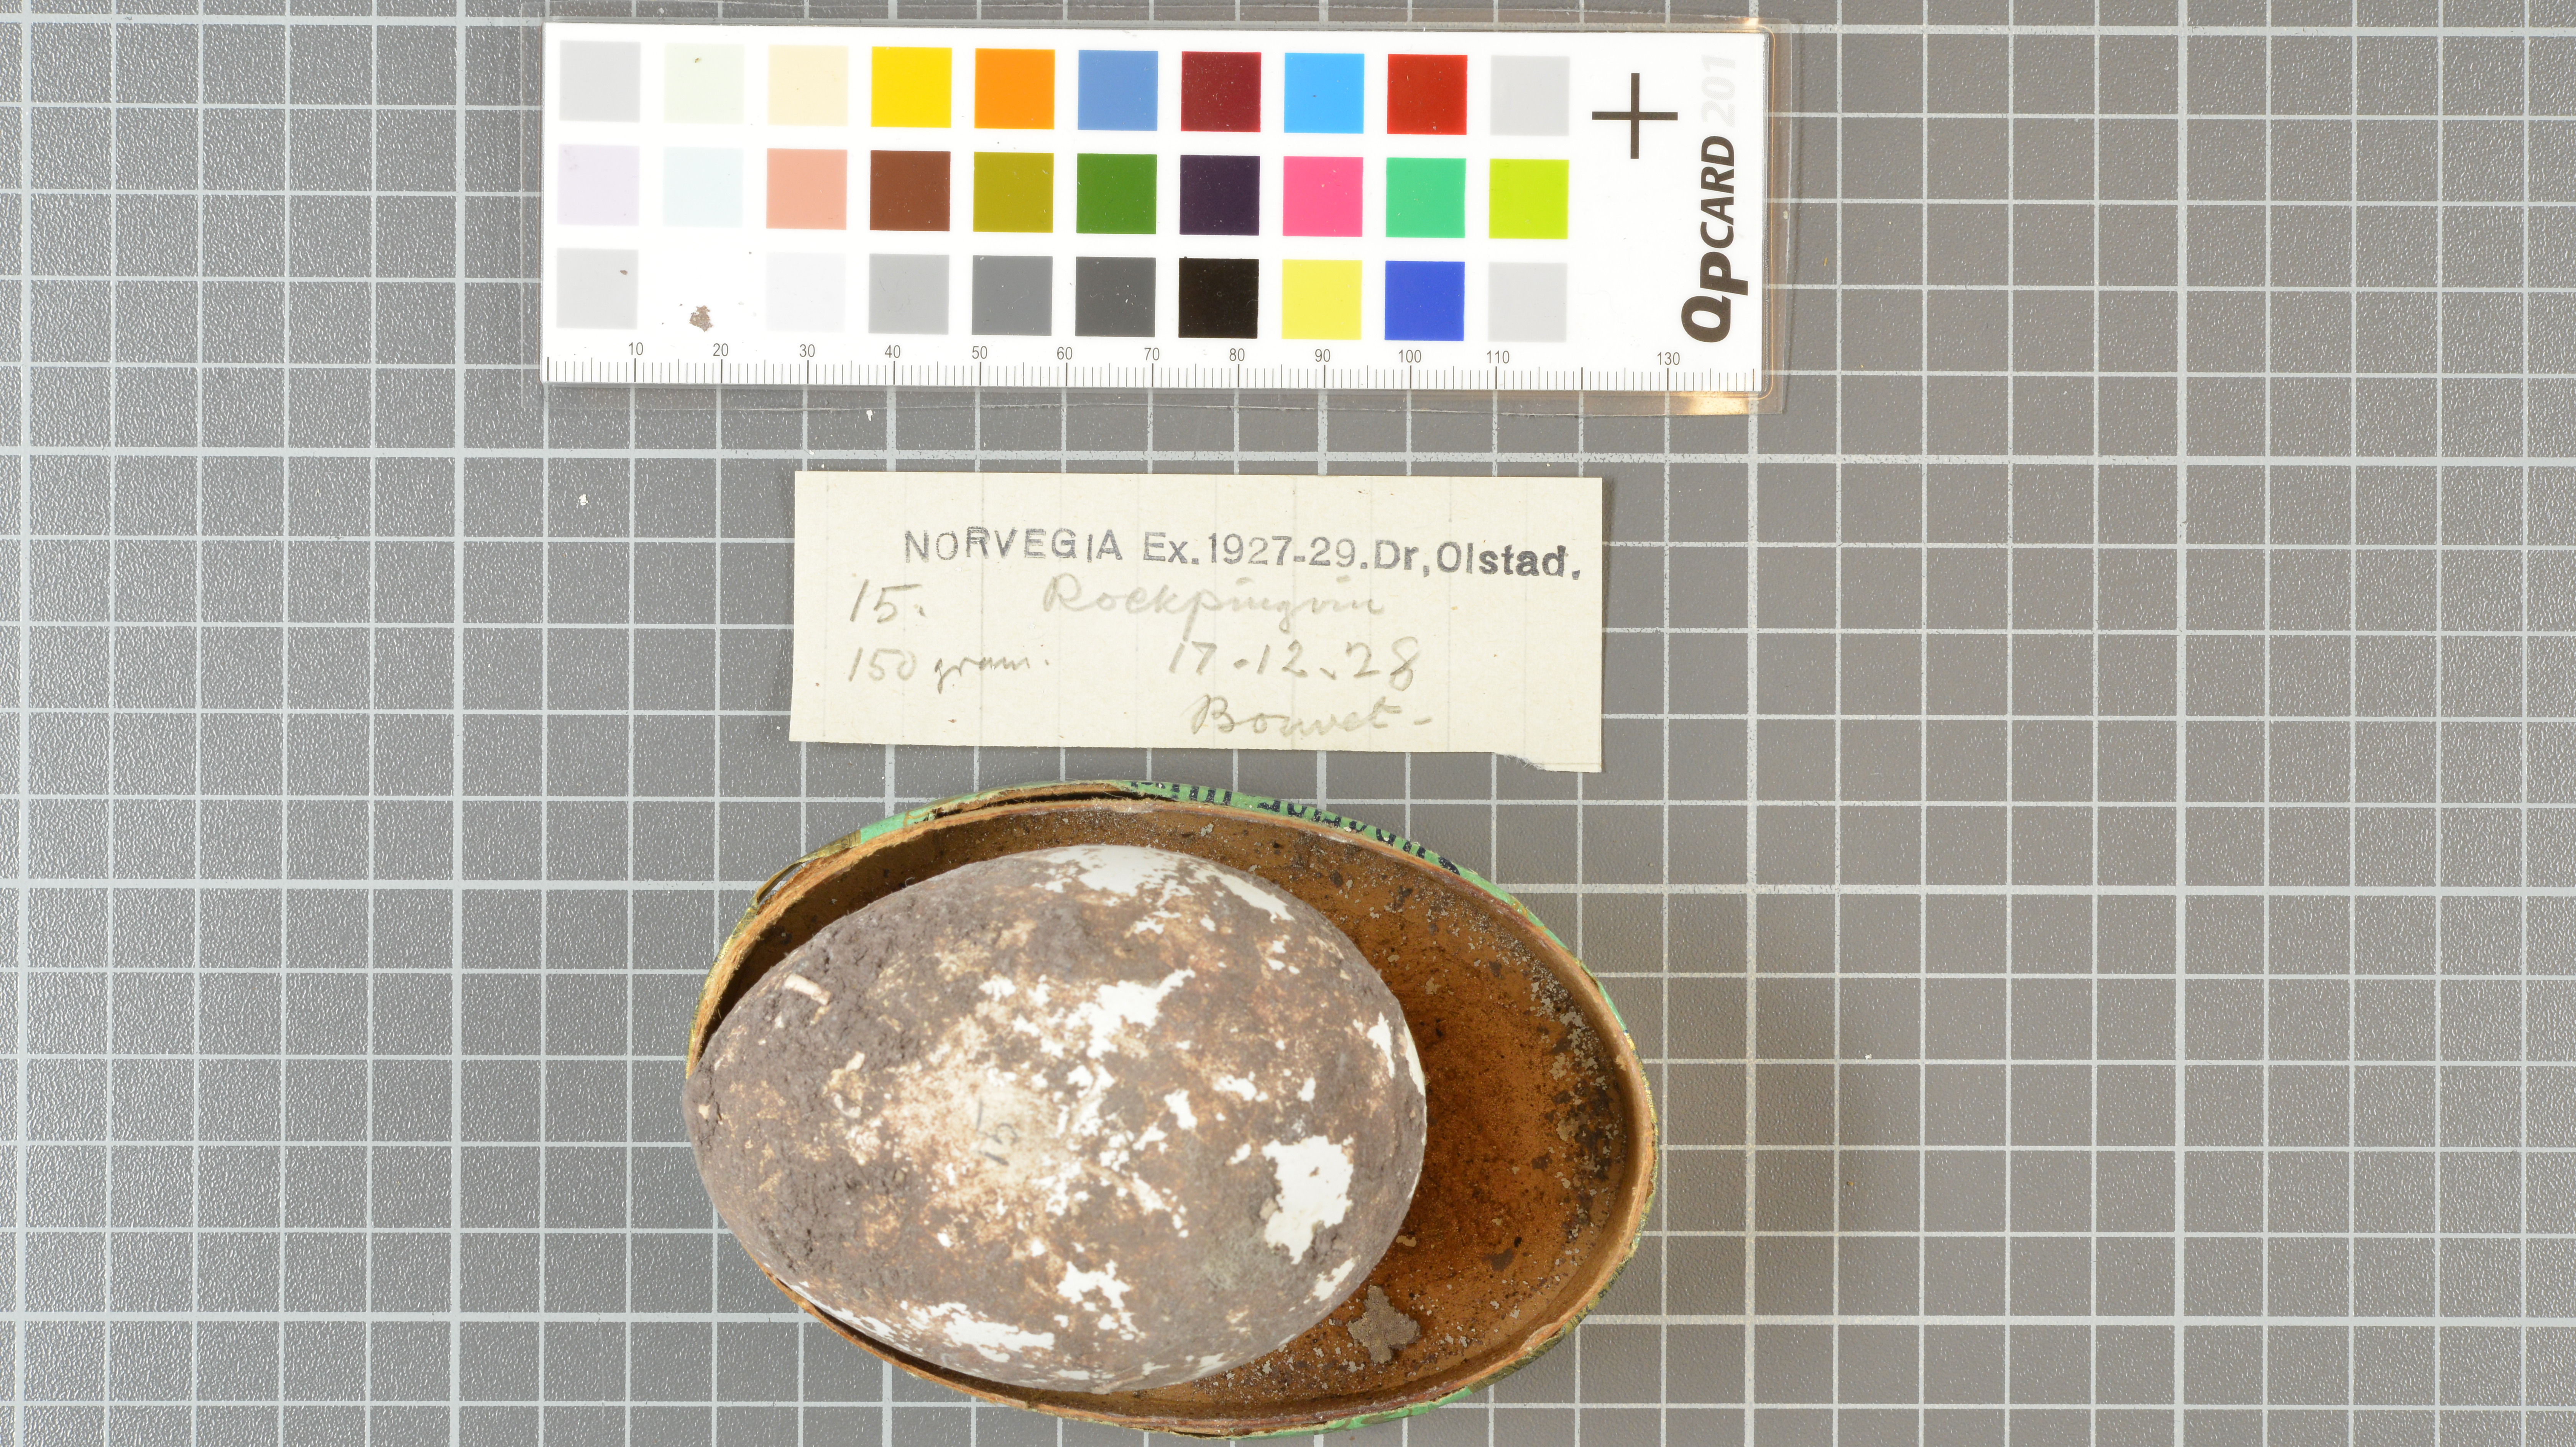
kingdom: Animalia
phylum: Chordata
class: Aves
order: Sphenisciformes
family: Spheniscidae
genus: Eudyptes
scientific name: Eudyptes chrysolophus
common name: Macaroni penguin
